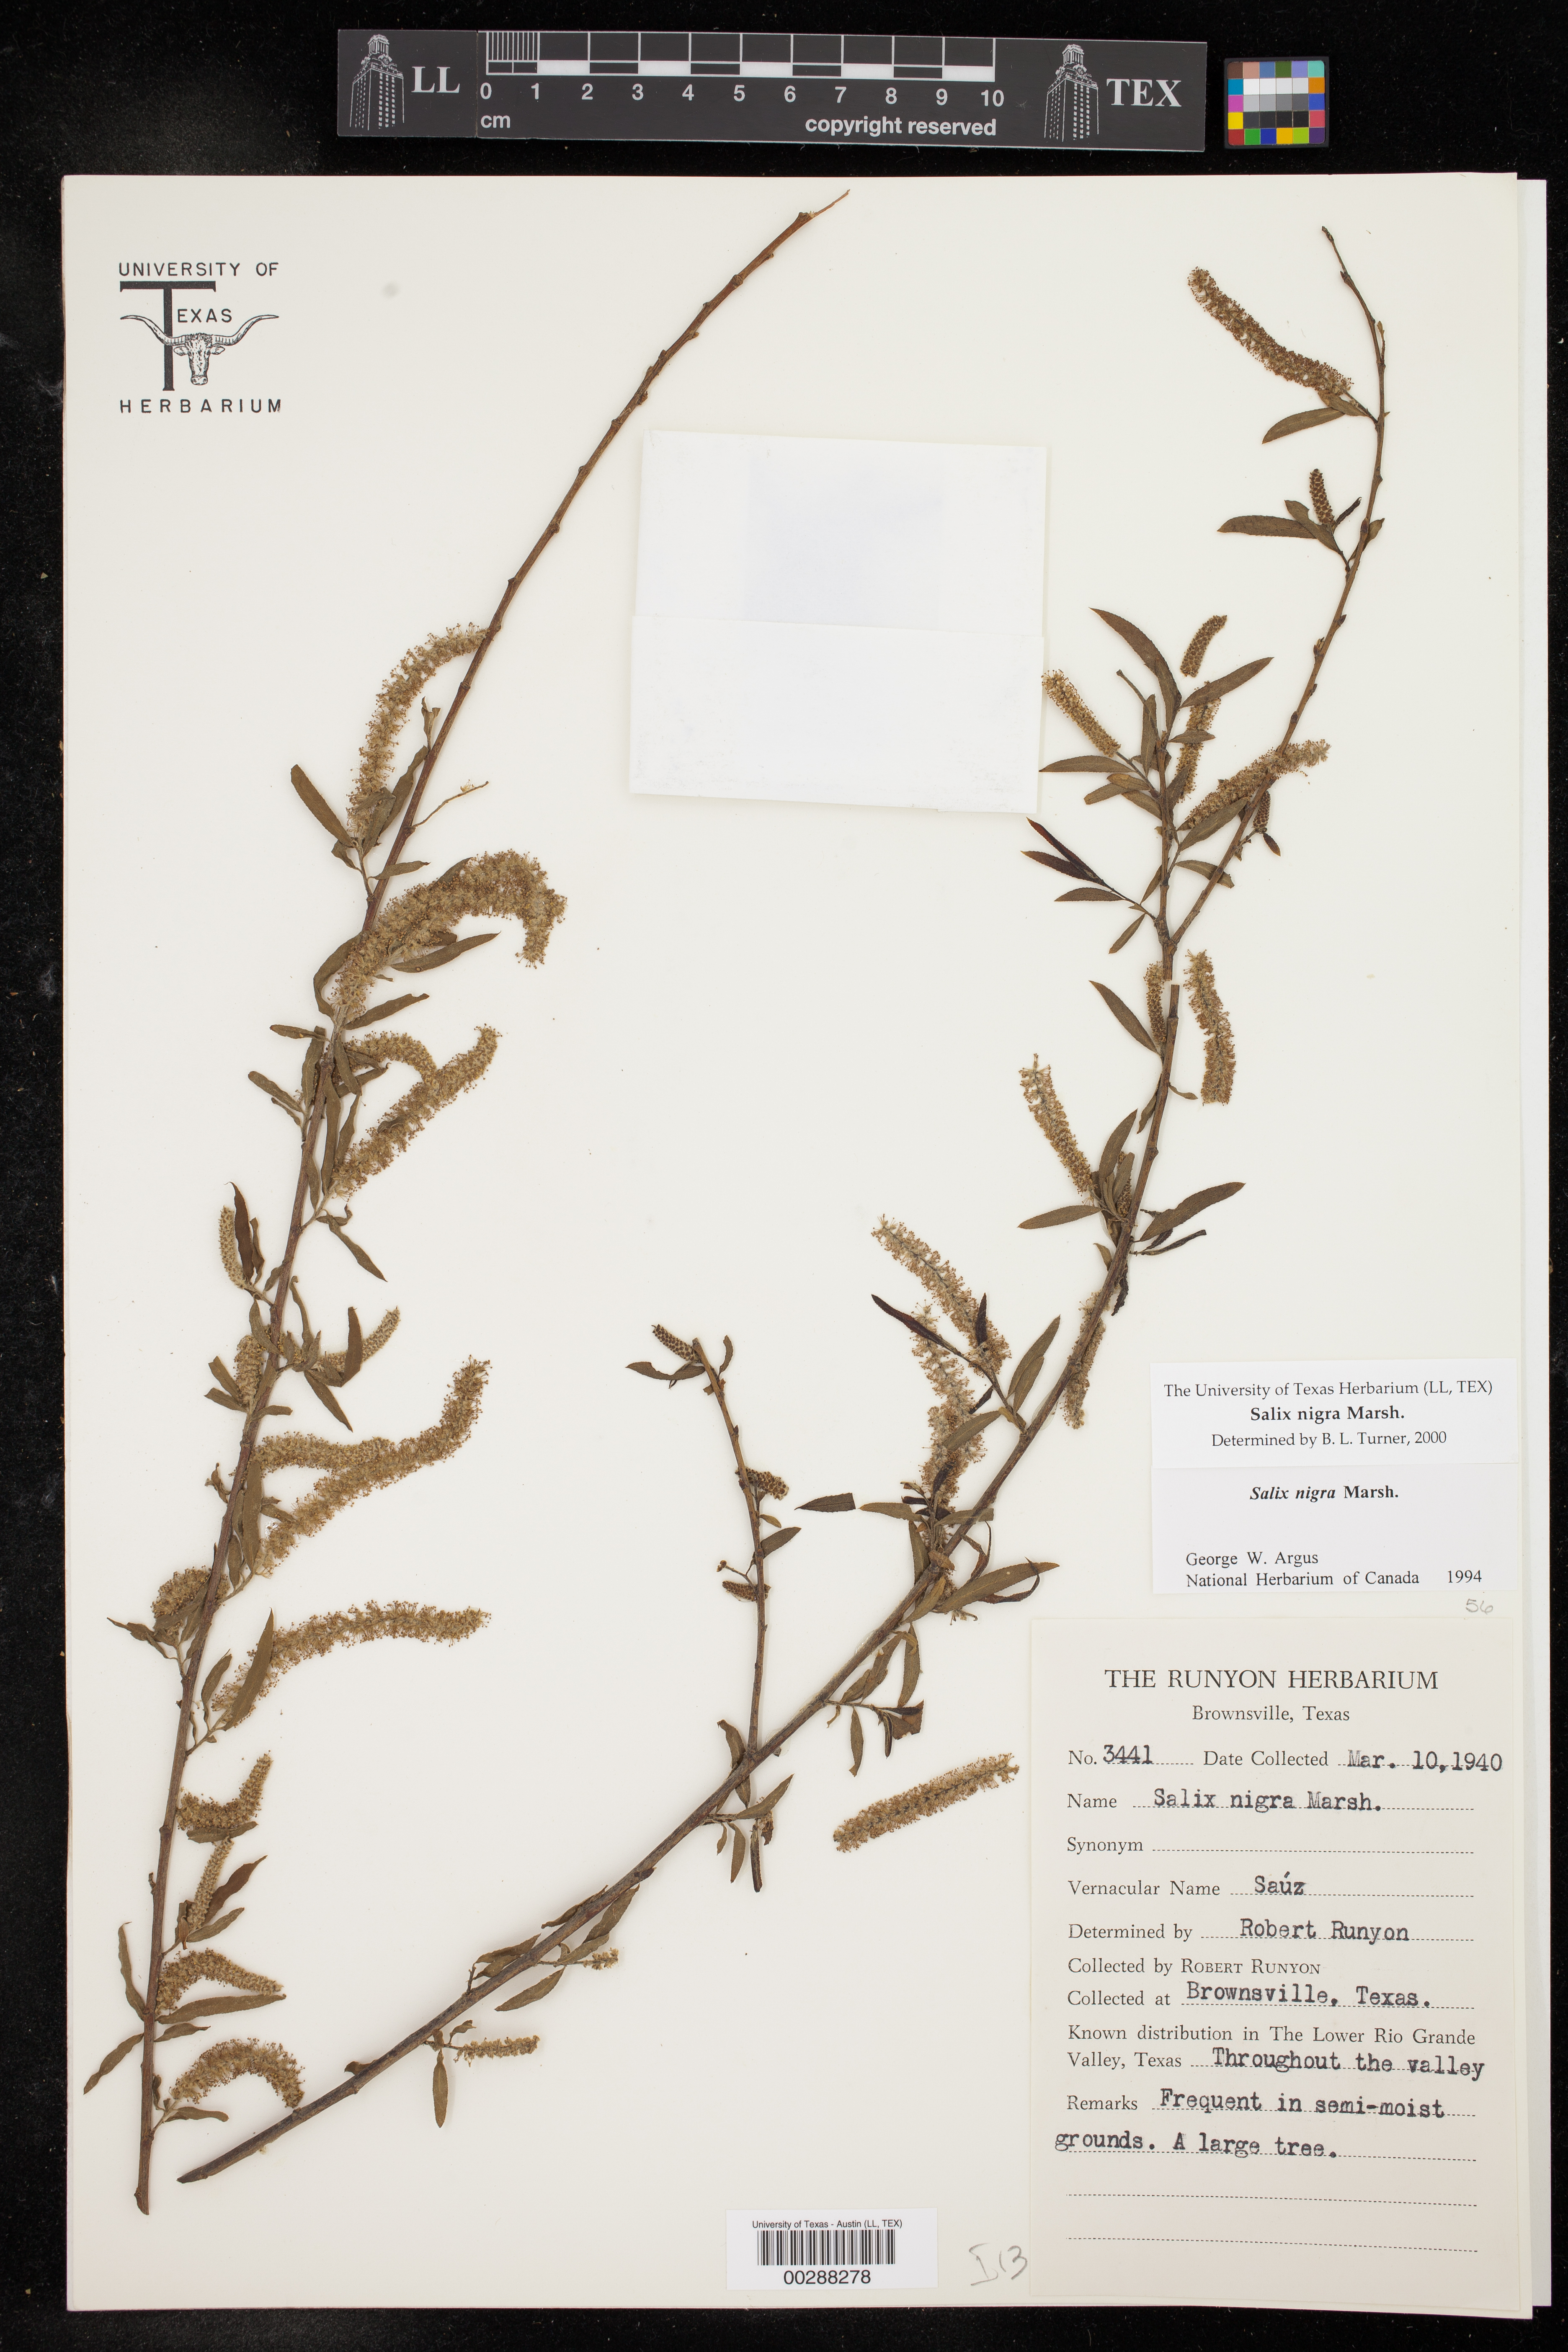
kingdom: Plantae
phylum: Tracheophyta
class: Magnoliopsida
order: Malpighiales
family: Salicaceae
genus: Salix
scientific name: Salix nigra
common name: Black willow
